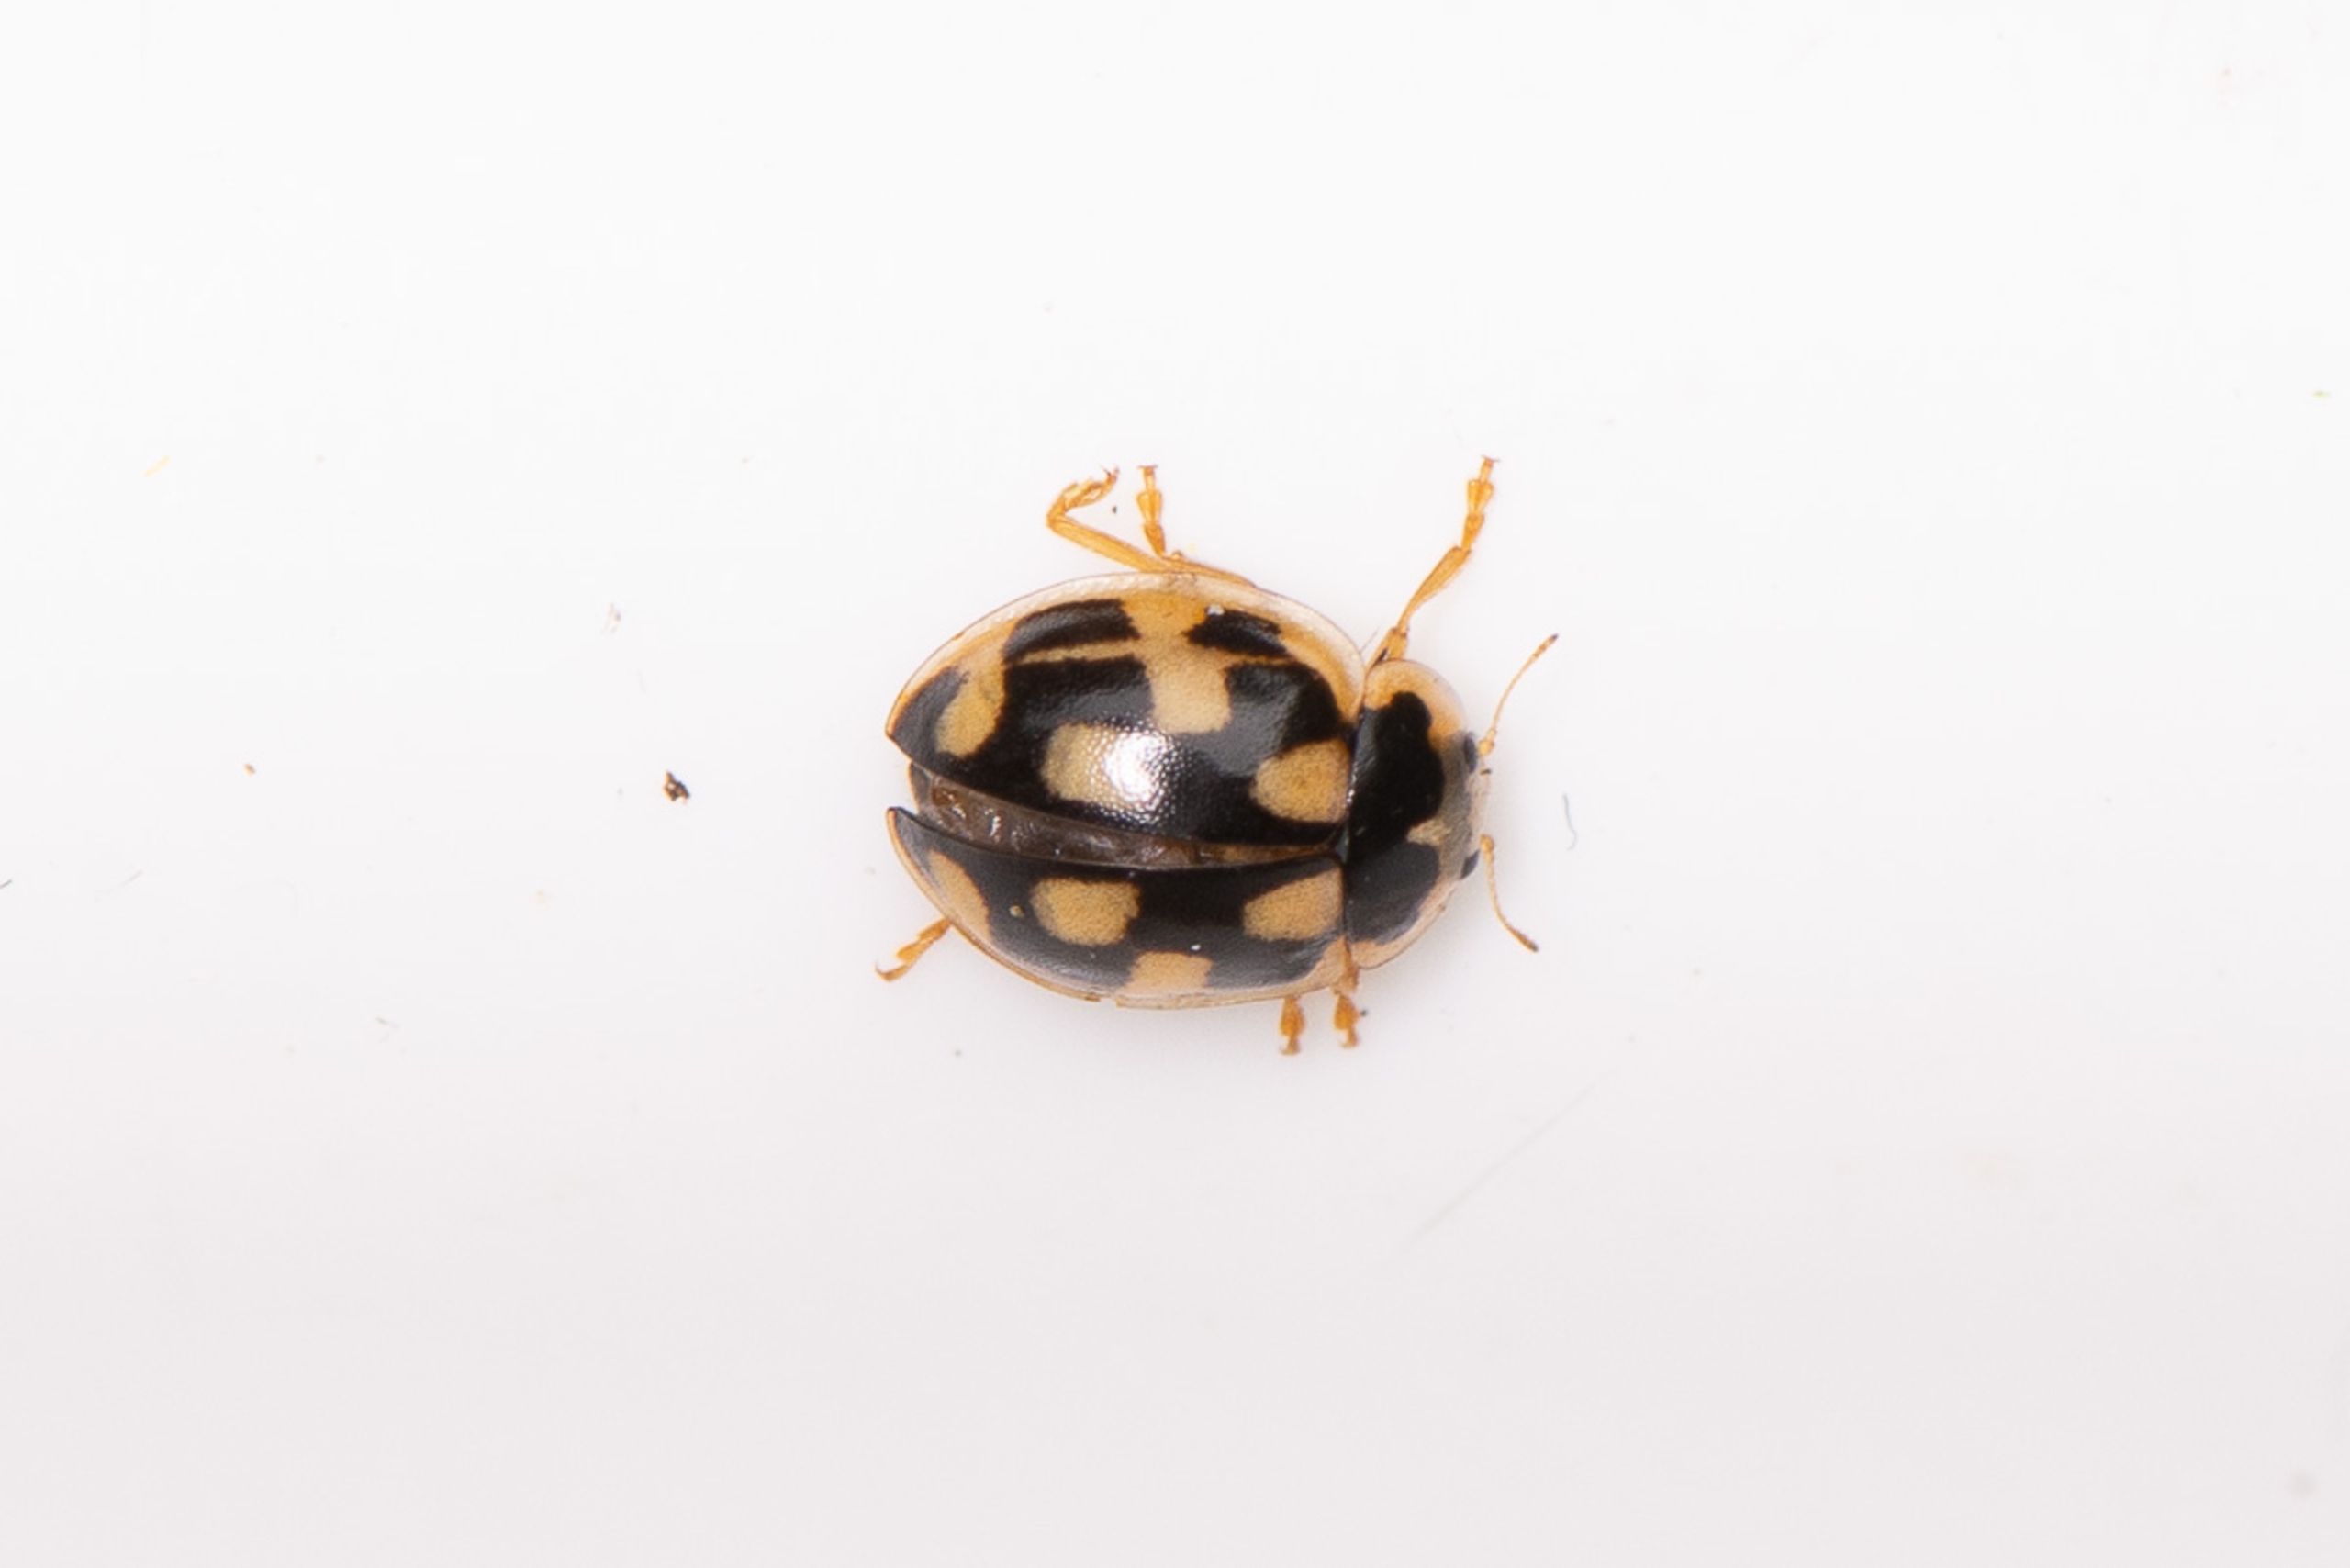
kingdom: Animalia
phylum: Arthropoda
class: Insecta
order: Coleoptera
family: Coccinellidae
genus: Propylaea
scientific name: Propylaea quatuordecimpunctata
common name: Skakbræt
